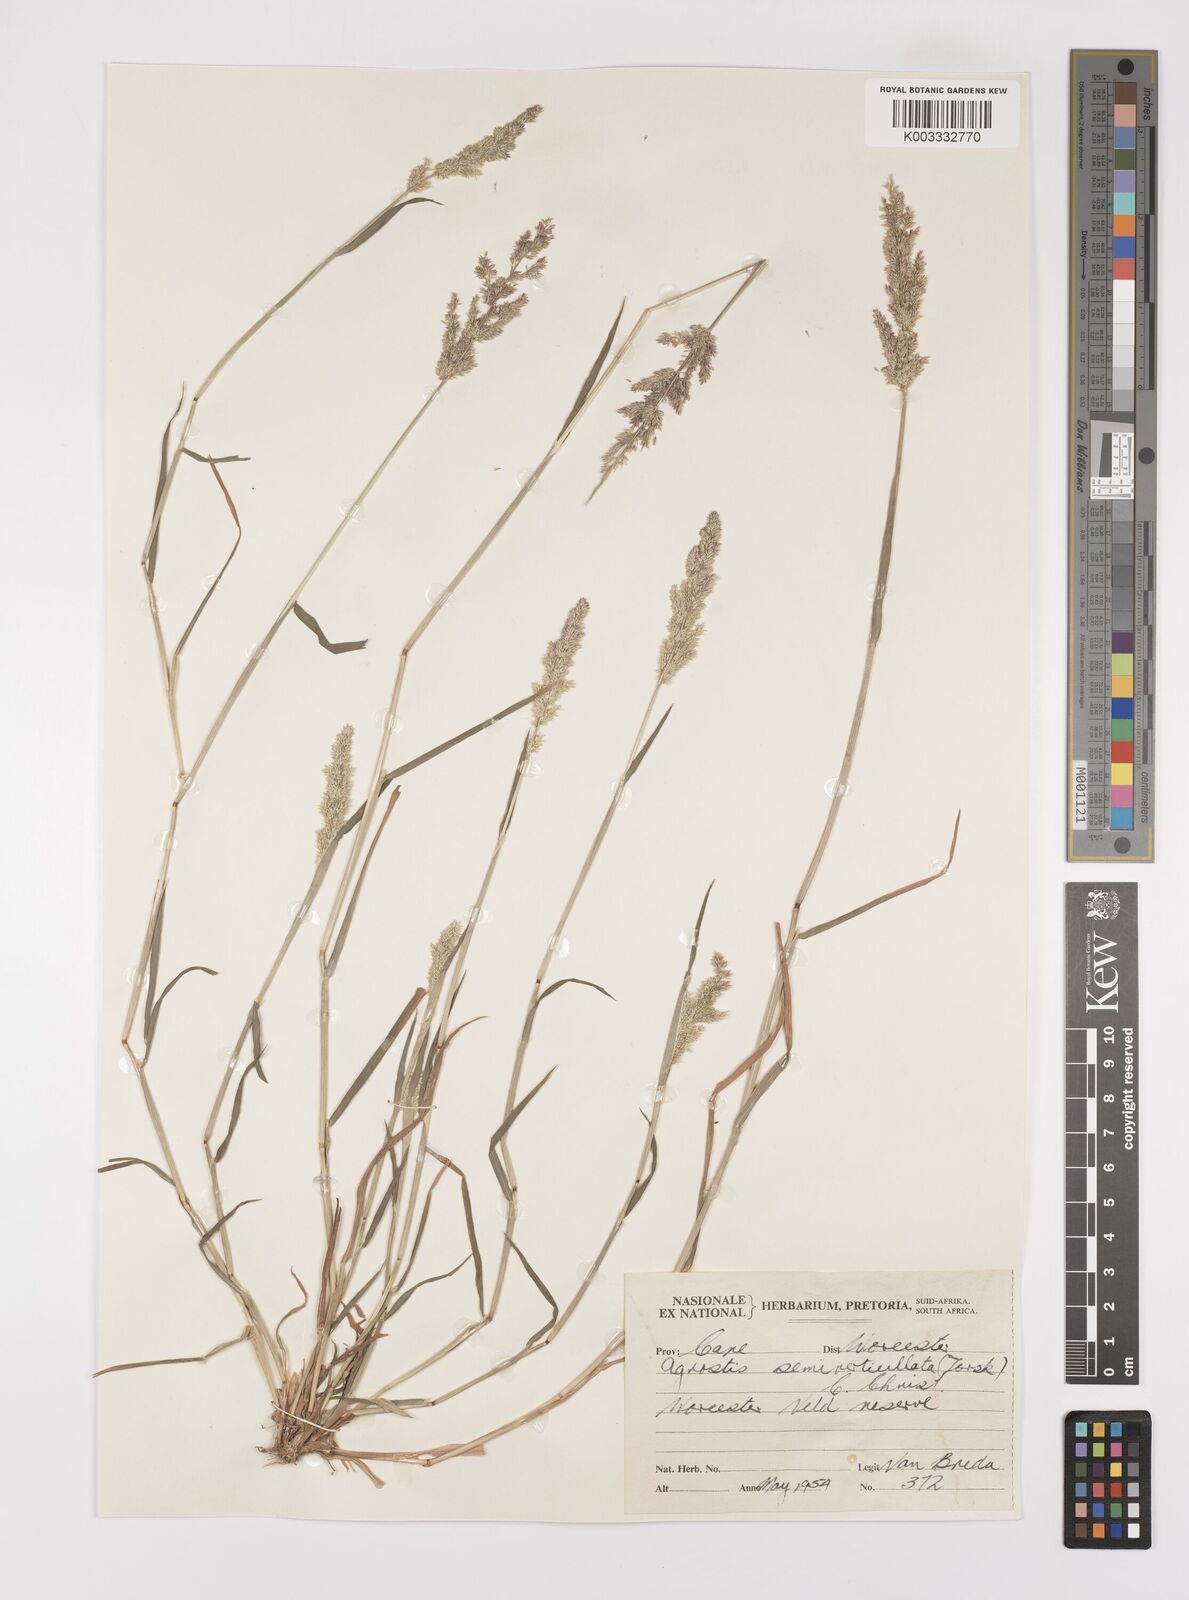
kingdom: Plantae
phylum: Tracheophyta
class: Liliopsida
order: Poales
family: Poaceae
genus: Polypogon
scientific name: Polypogon viridis
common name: Water bent
